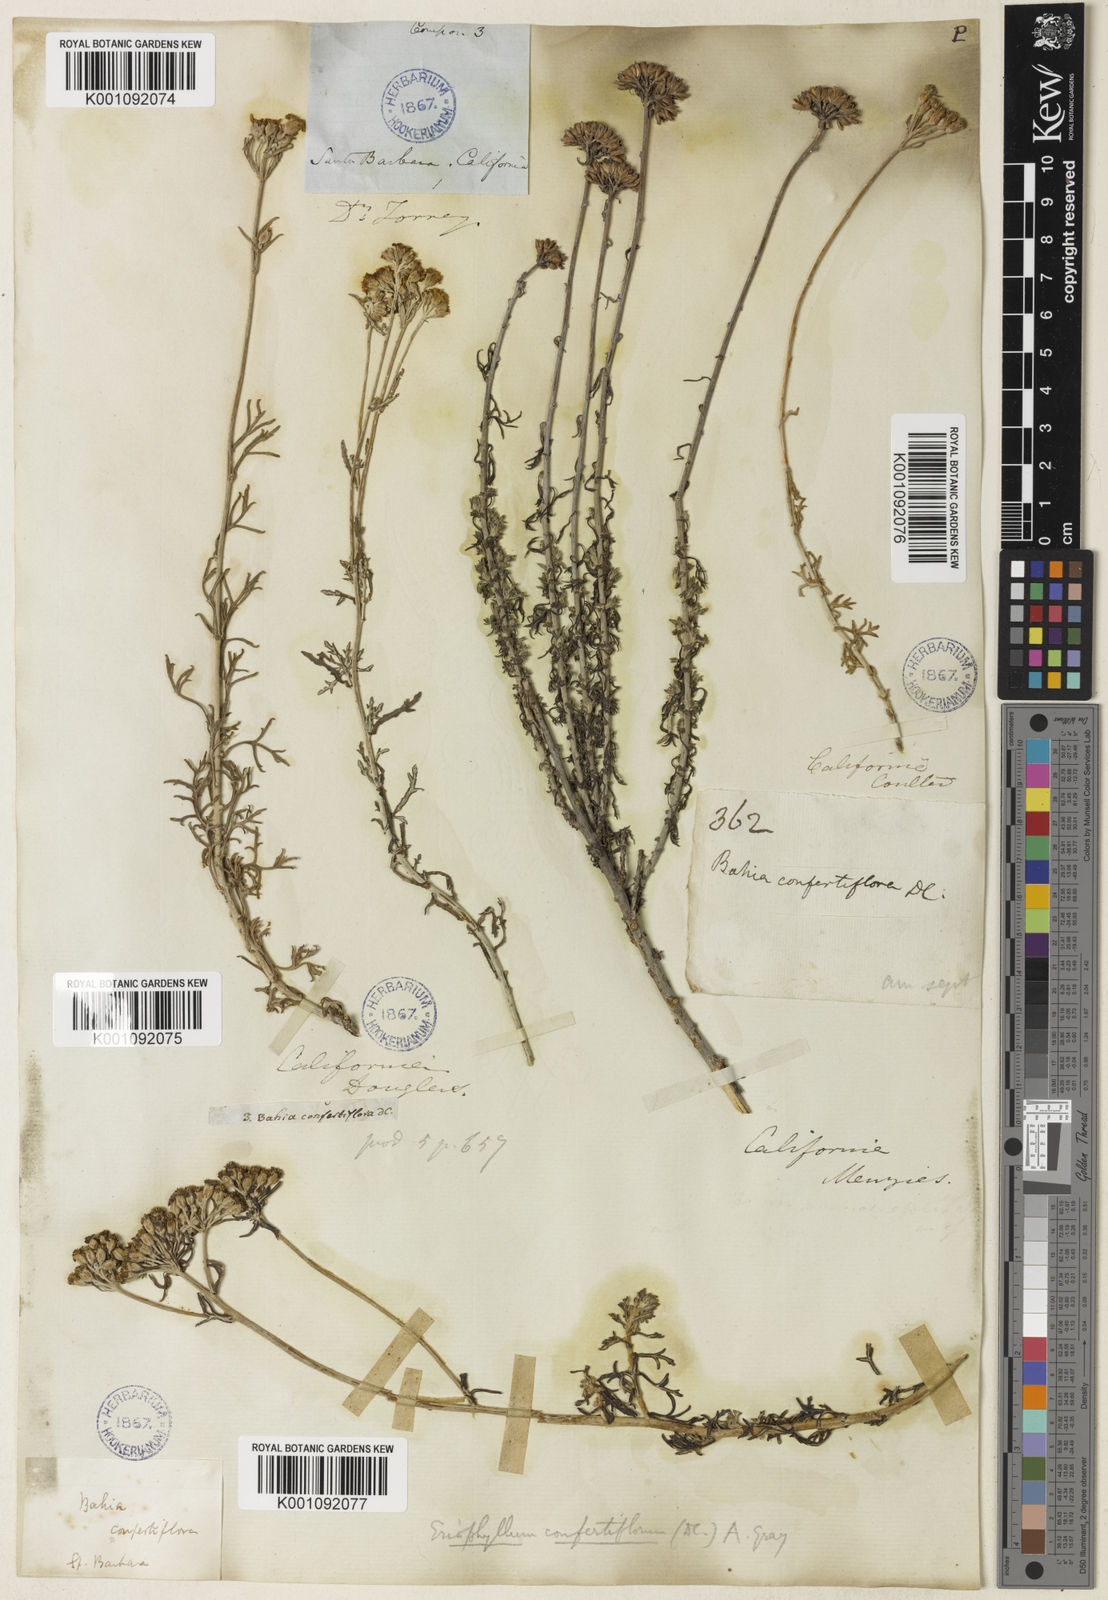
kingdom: Plantae
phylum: Tracheophyta
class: Magnoliopsida
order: Asterales
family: Asteraceae
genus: Eriophyllum
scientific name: Eriophyllum confertiflorum
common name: Golden-yarrow
